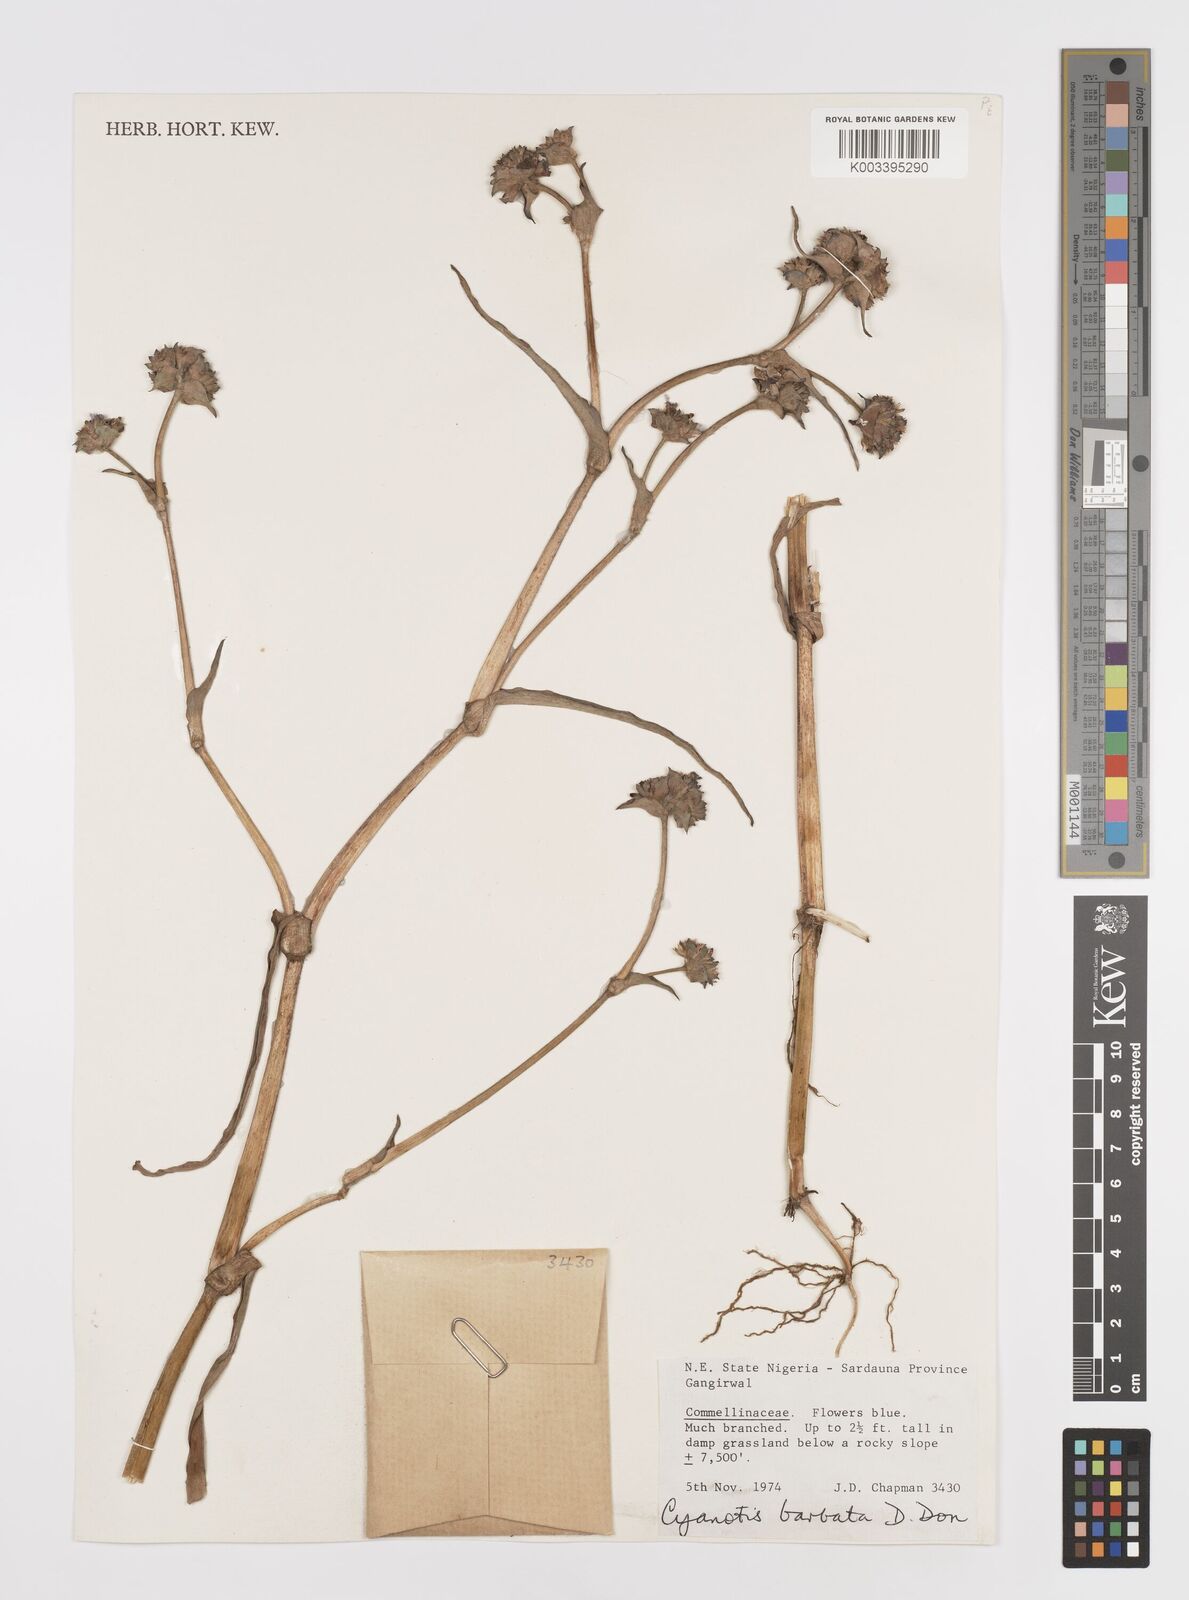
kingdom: Plantae
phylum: Tracheophyta
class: Liliopsida
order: Commelinales
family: Commelinaceae
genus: Cyanotis
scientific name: Cyanotis vaga
